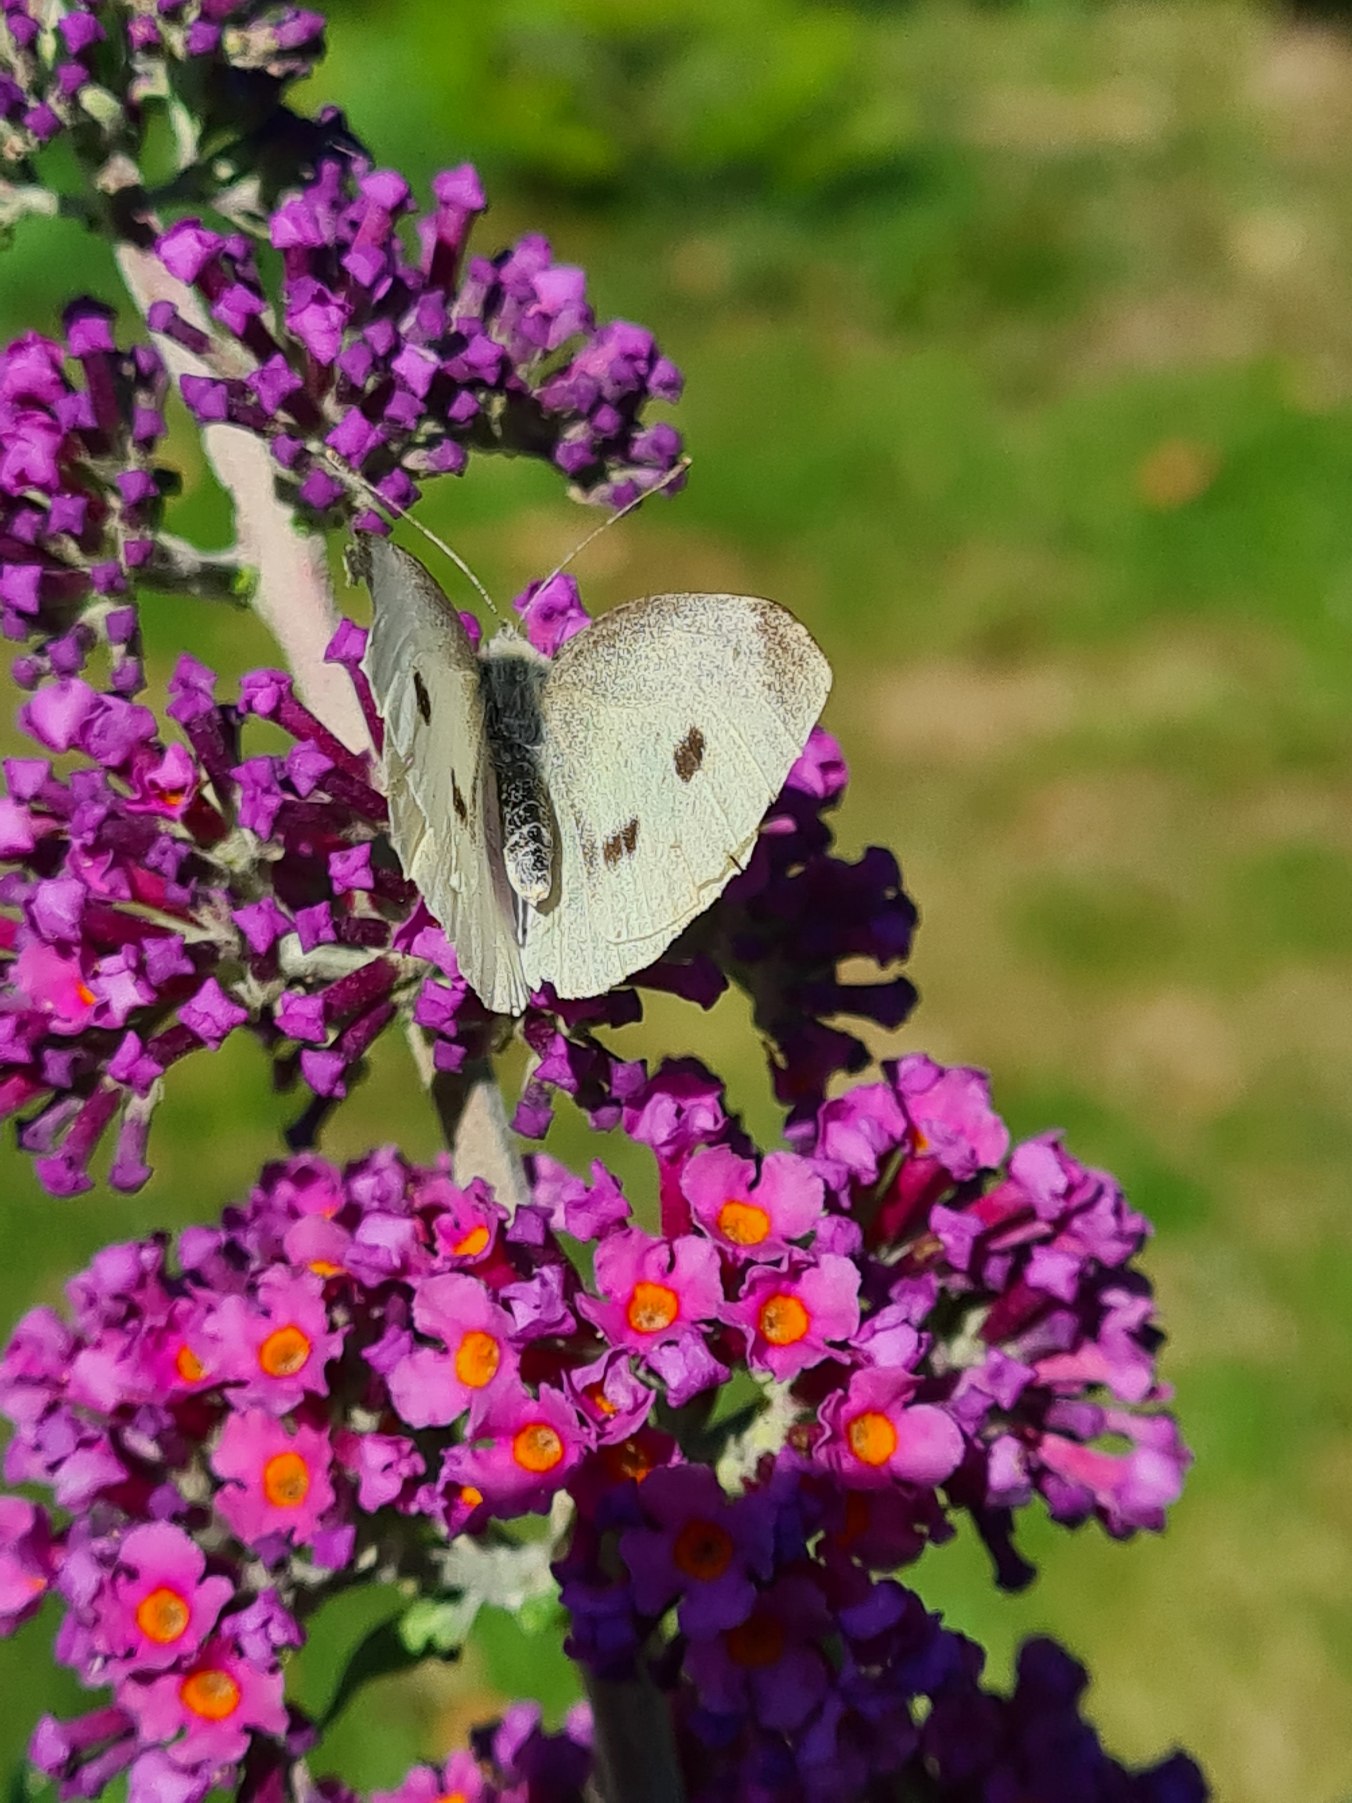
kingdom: Animalia
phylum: Arthropoda
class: Insecta
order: Lepidoptera
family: Pieridae
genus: Pieris
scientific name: Pieris rapae
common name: Lille kålsommerfugl
